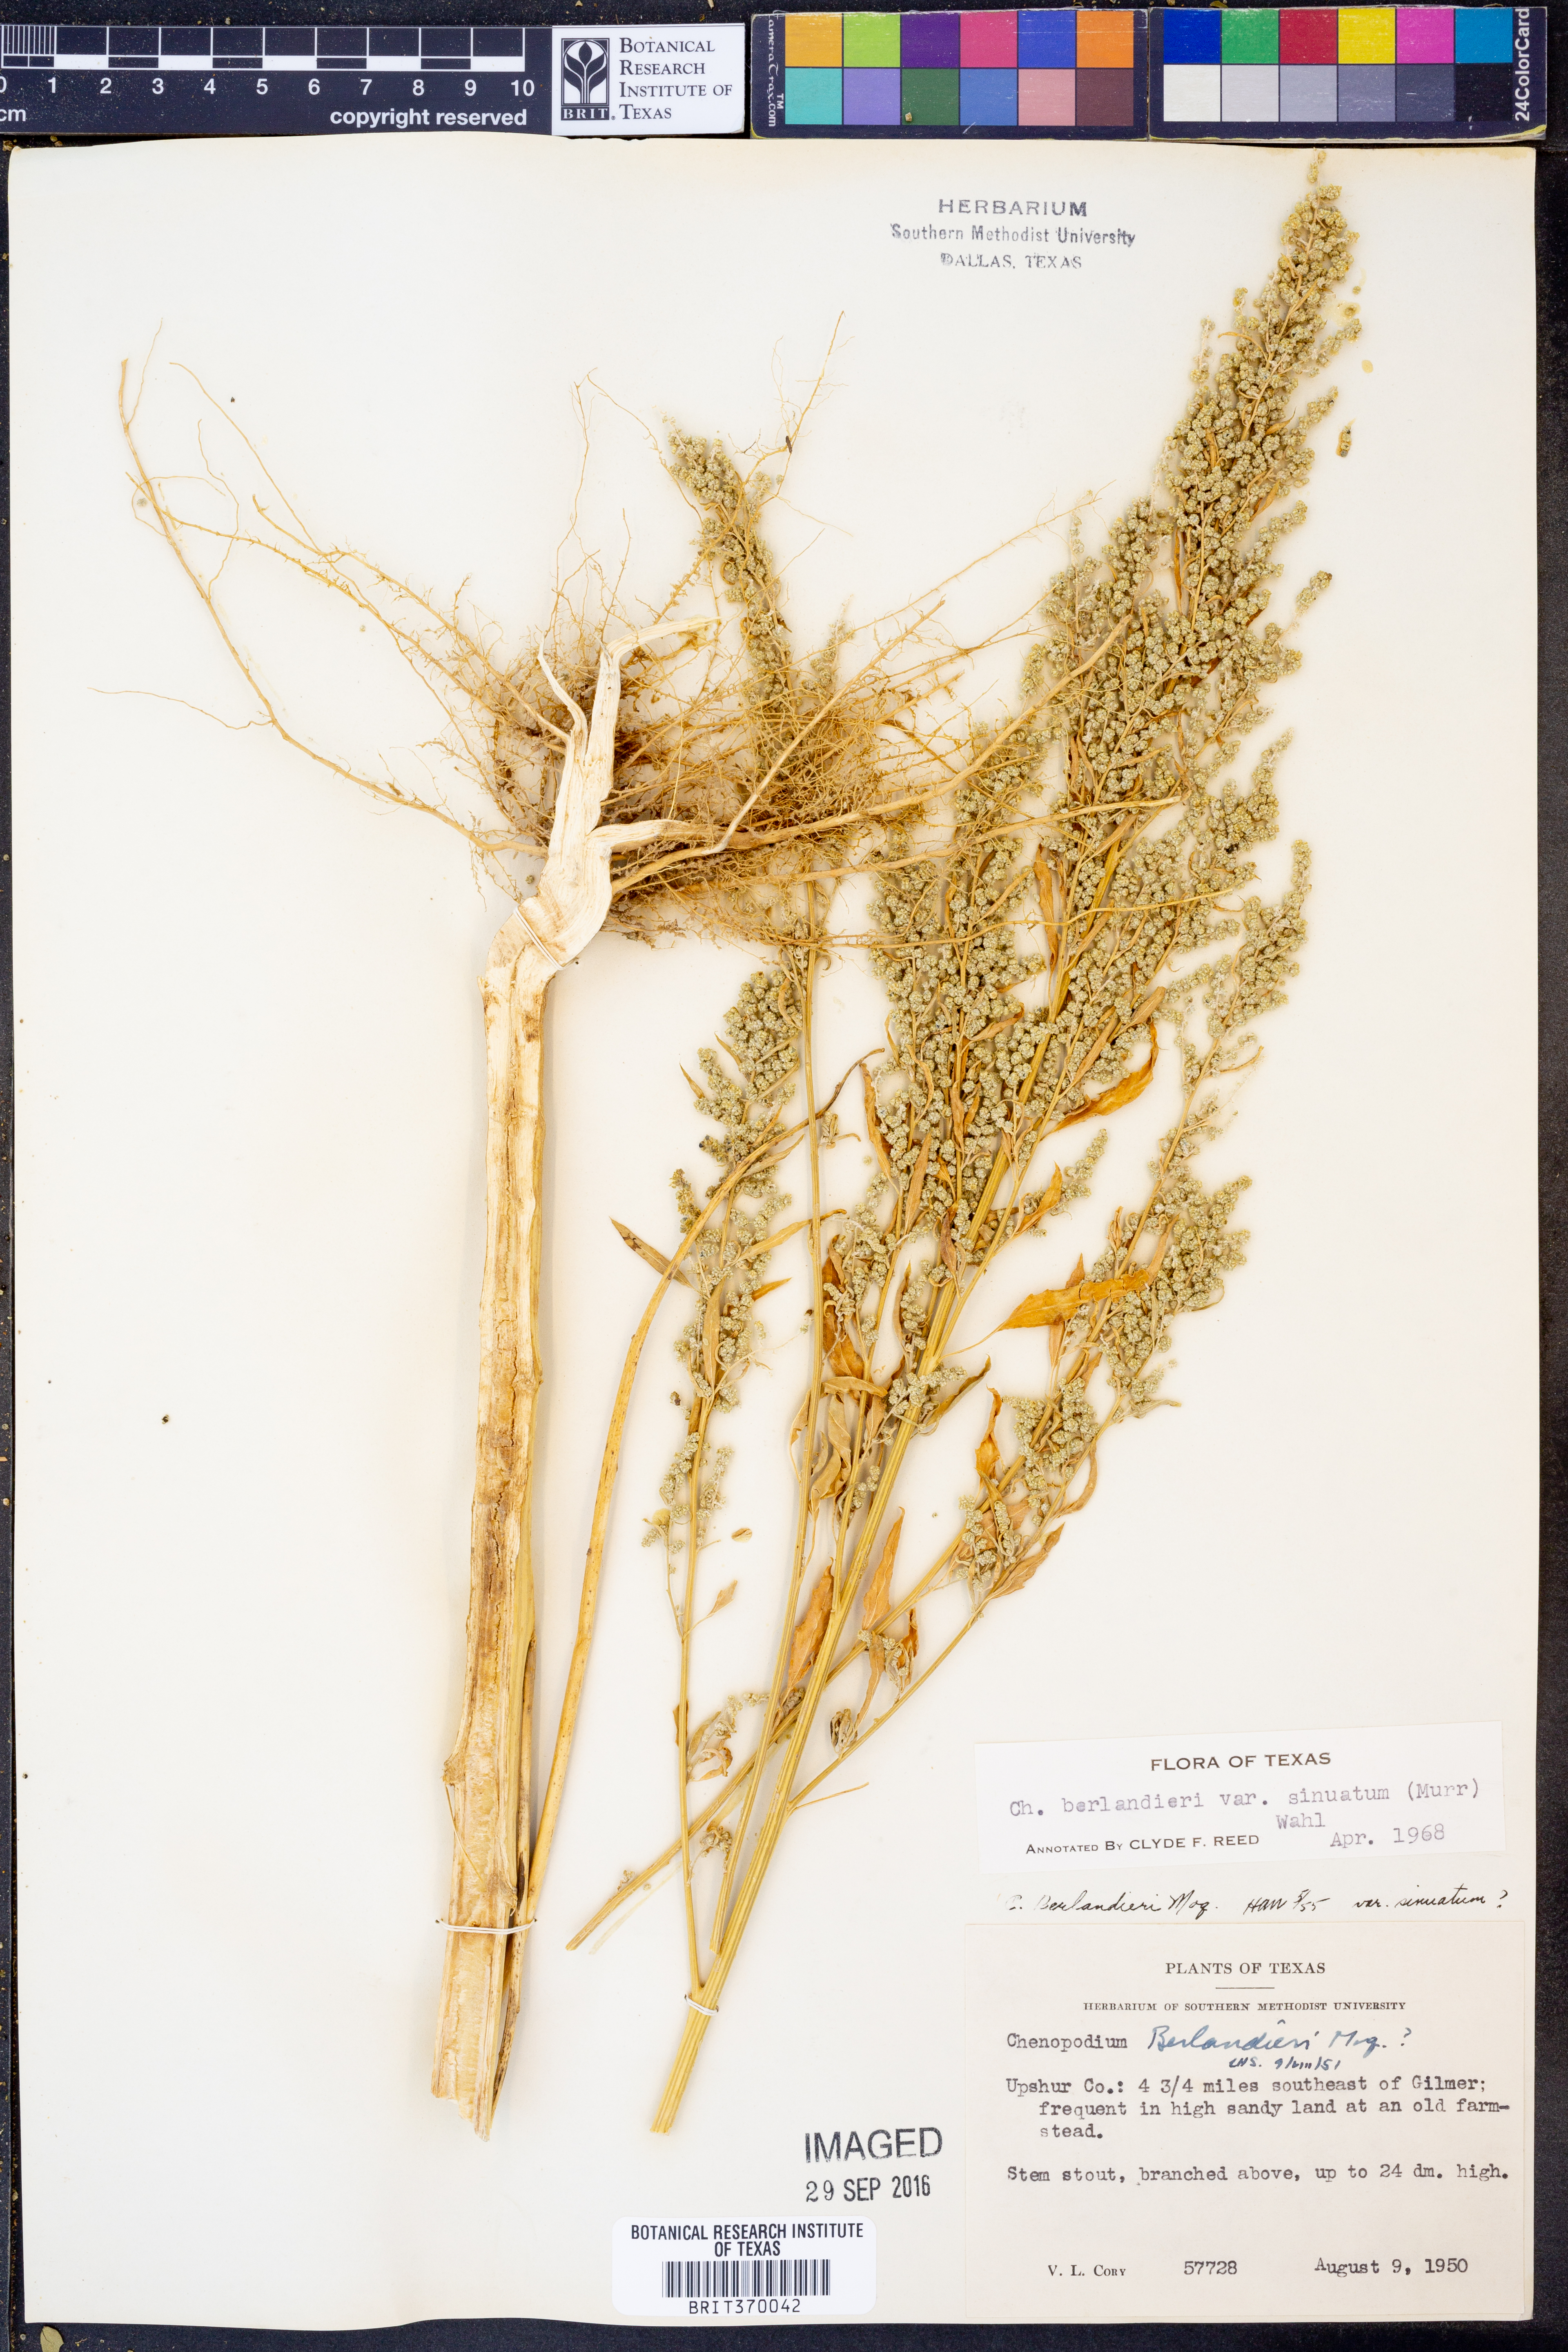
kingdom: Plantae
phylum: Tracheophyta
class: Magnoliopsida
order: Caryophyllales
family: Amaranthaceae
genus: Chenopodium
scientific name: Chenopodium berlandieri
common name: Pit-seed goosefoot
